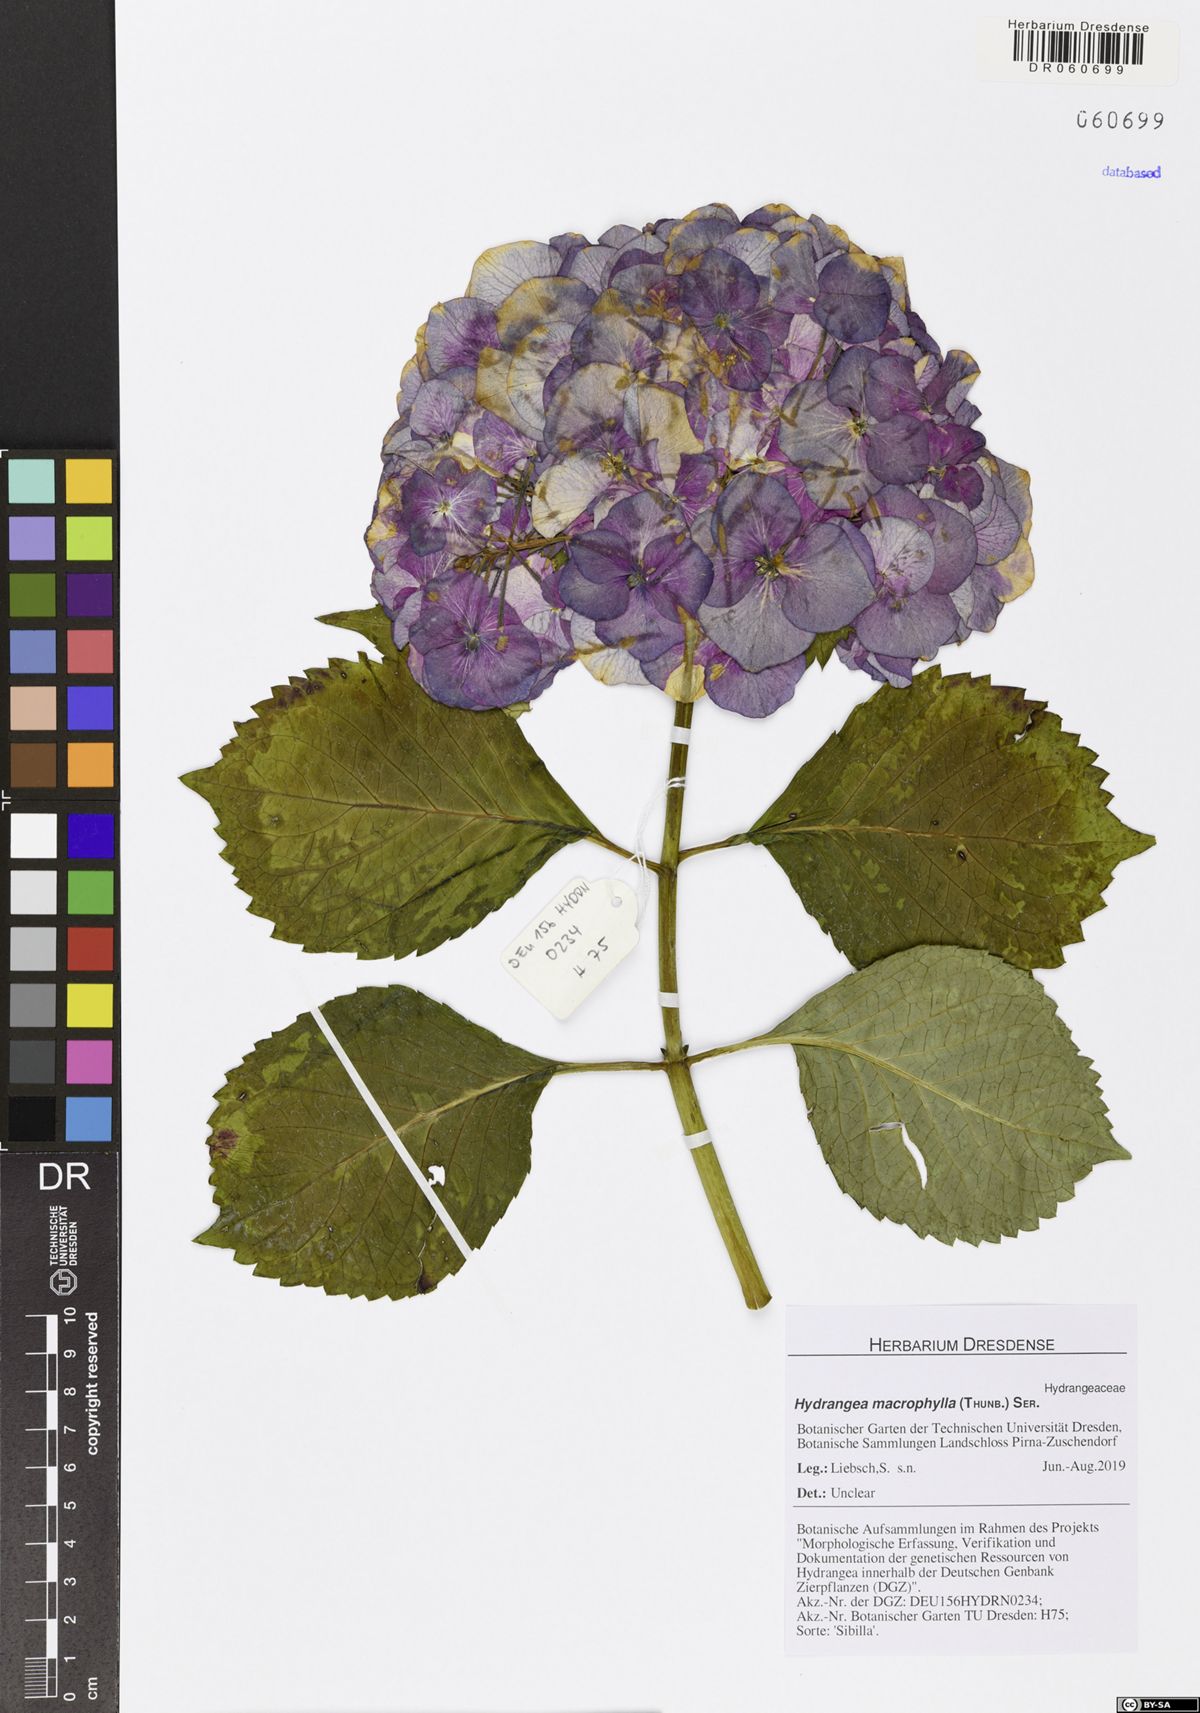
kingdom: Plantae
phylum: Tracheophyta
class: Magnoliopsida
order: Cornales
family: Hydrangeaceae
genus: Hydrangea
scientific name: Hydrangea macrophylla
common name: Hydrangea
